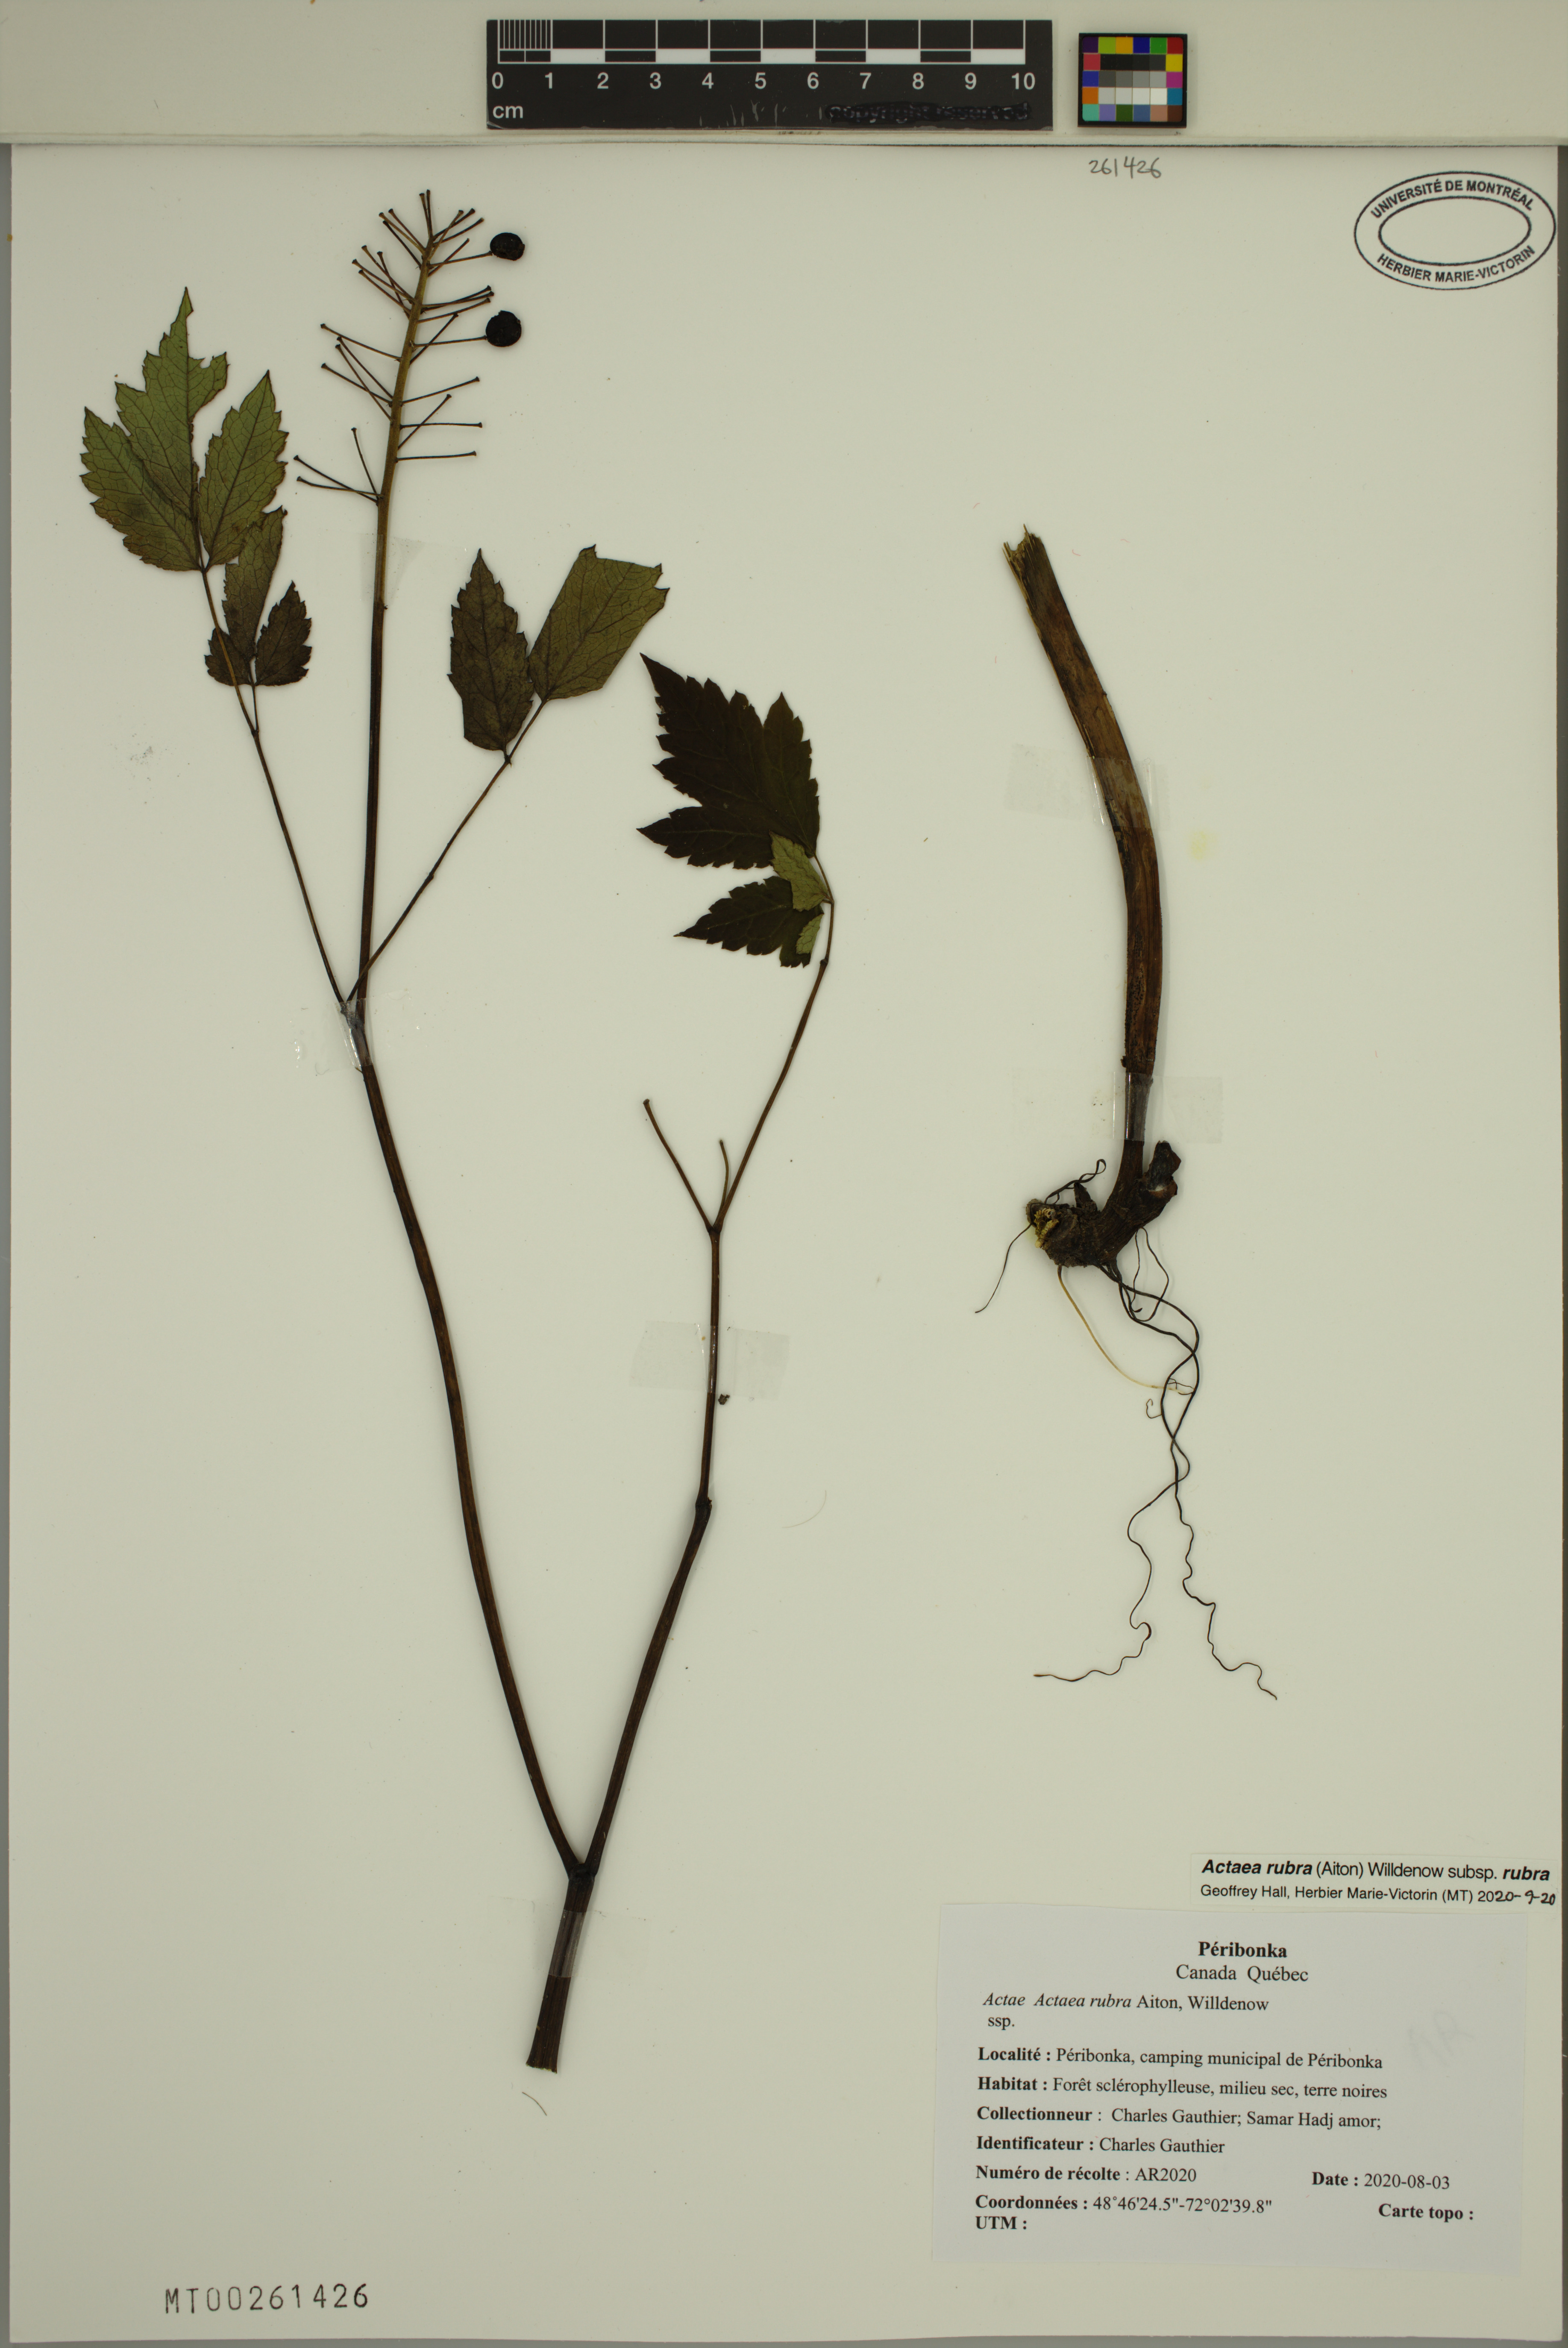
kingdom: Plantae
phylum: Tracheophyta
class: Magnoliopsida
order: Ranunculales
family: Ranunculaceae
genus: Actaea
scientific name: Actaea rubra
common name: Red baneberry
